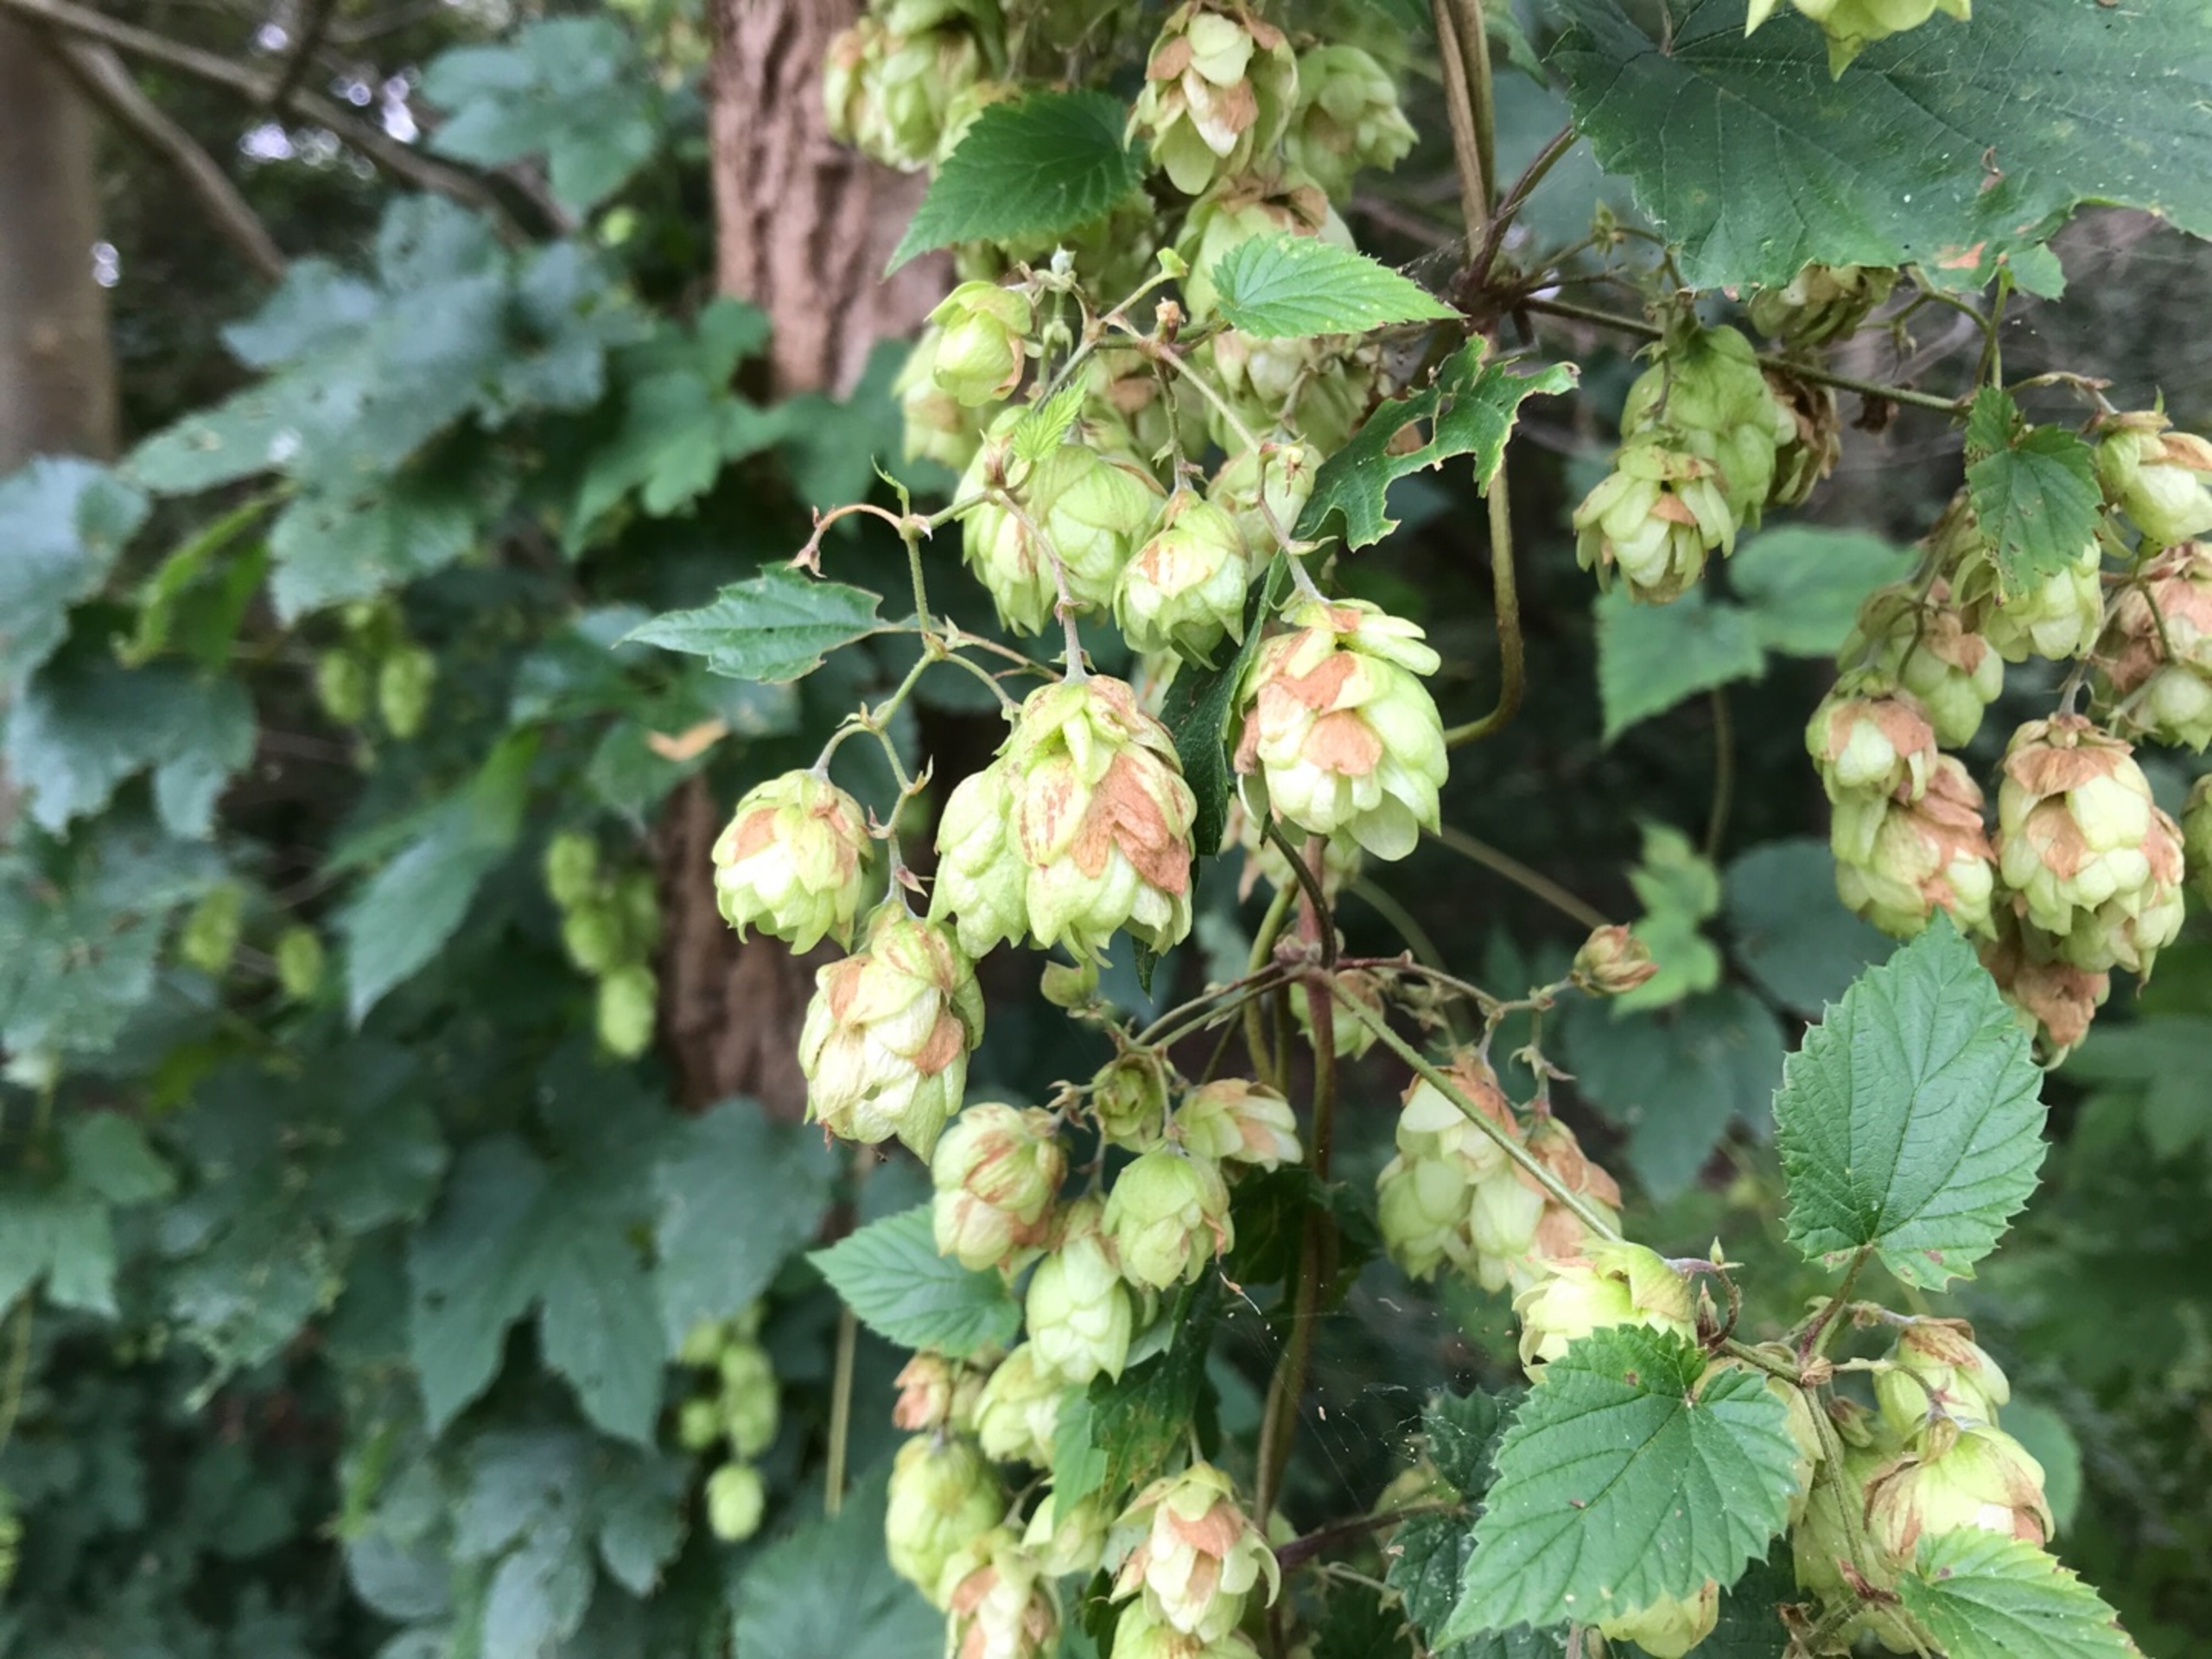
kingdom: Plantae
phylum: Tracheophyta
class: Magnoliopsida
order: Rosales
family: Cannabaceae
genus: Humulus
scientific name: Humulus lupulus
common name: Humle
